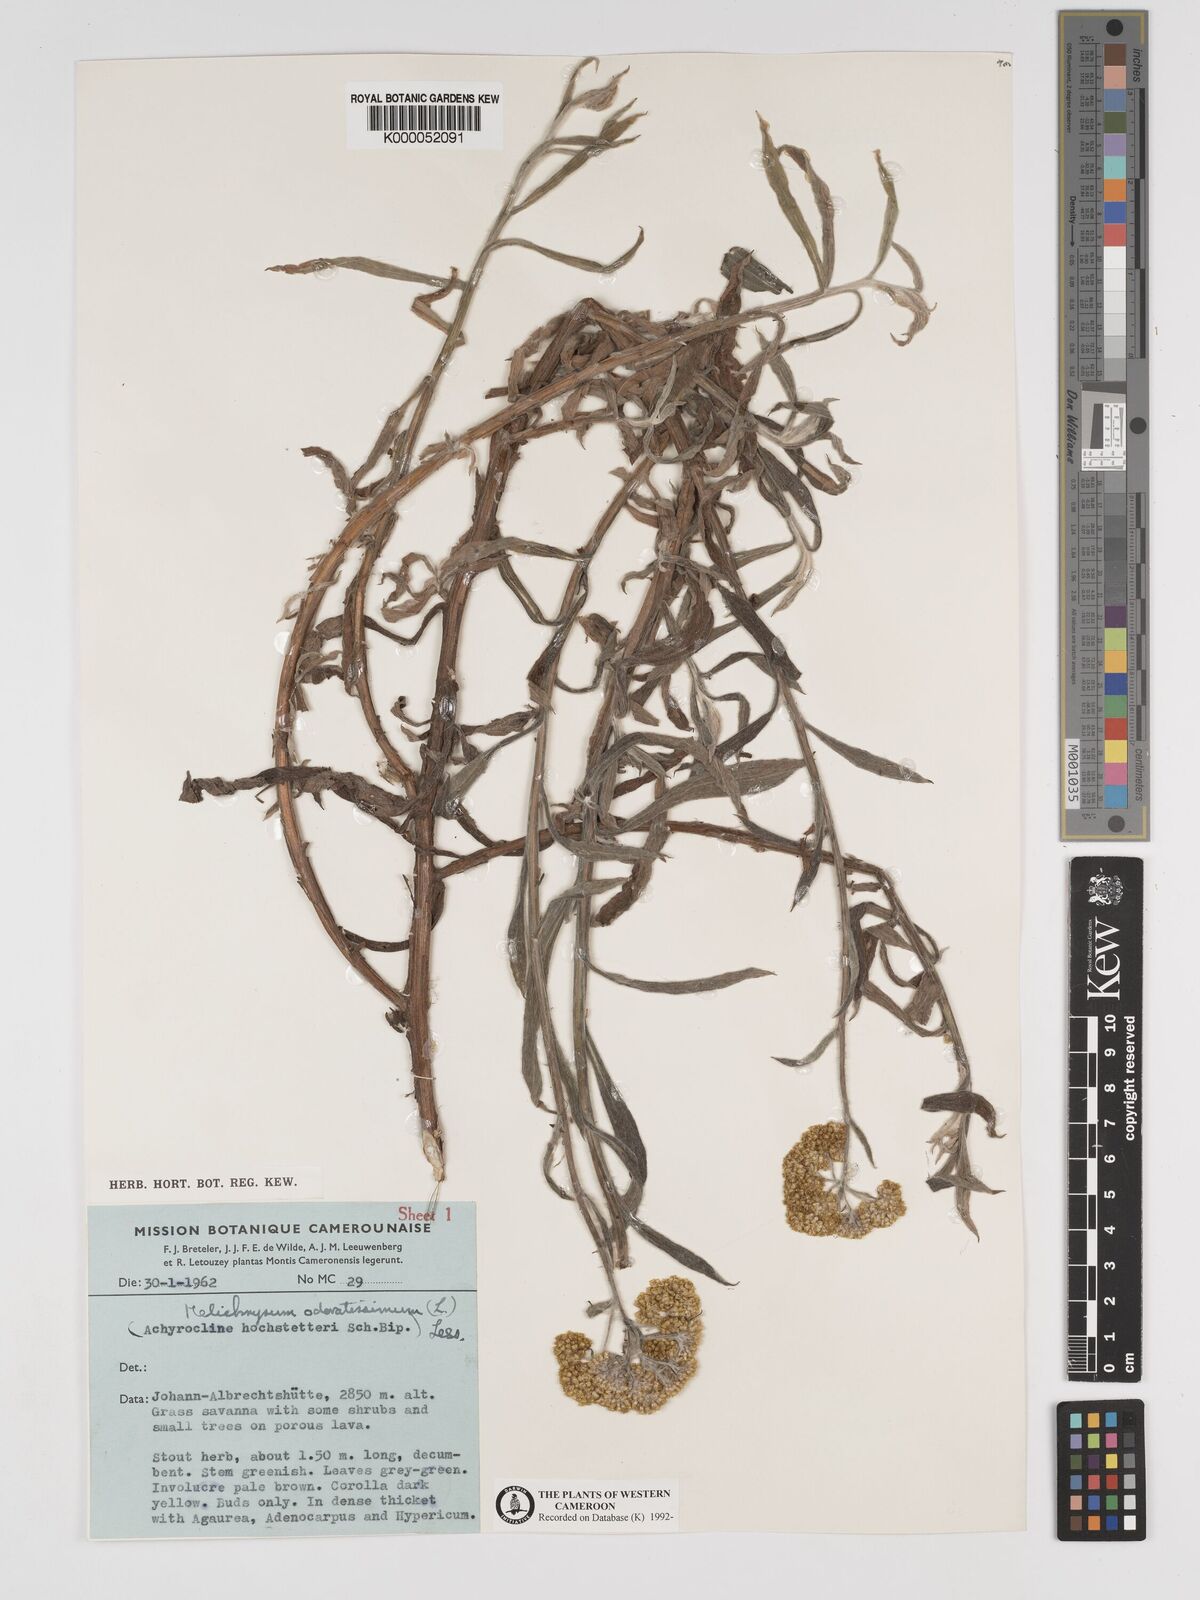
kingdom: Plantae
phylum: Tracheophyta
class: Magnoliopsida
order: Asterales
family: Asteraceae
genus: Helichrysum
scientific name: Helichrysum odoratissimum
